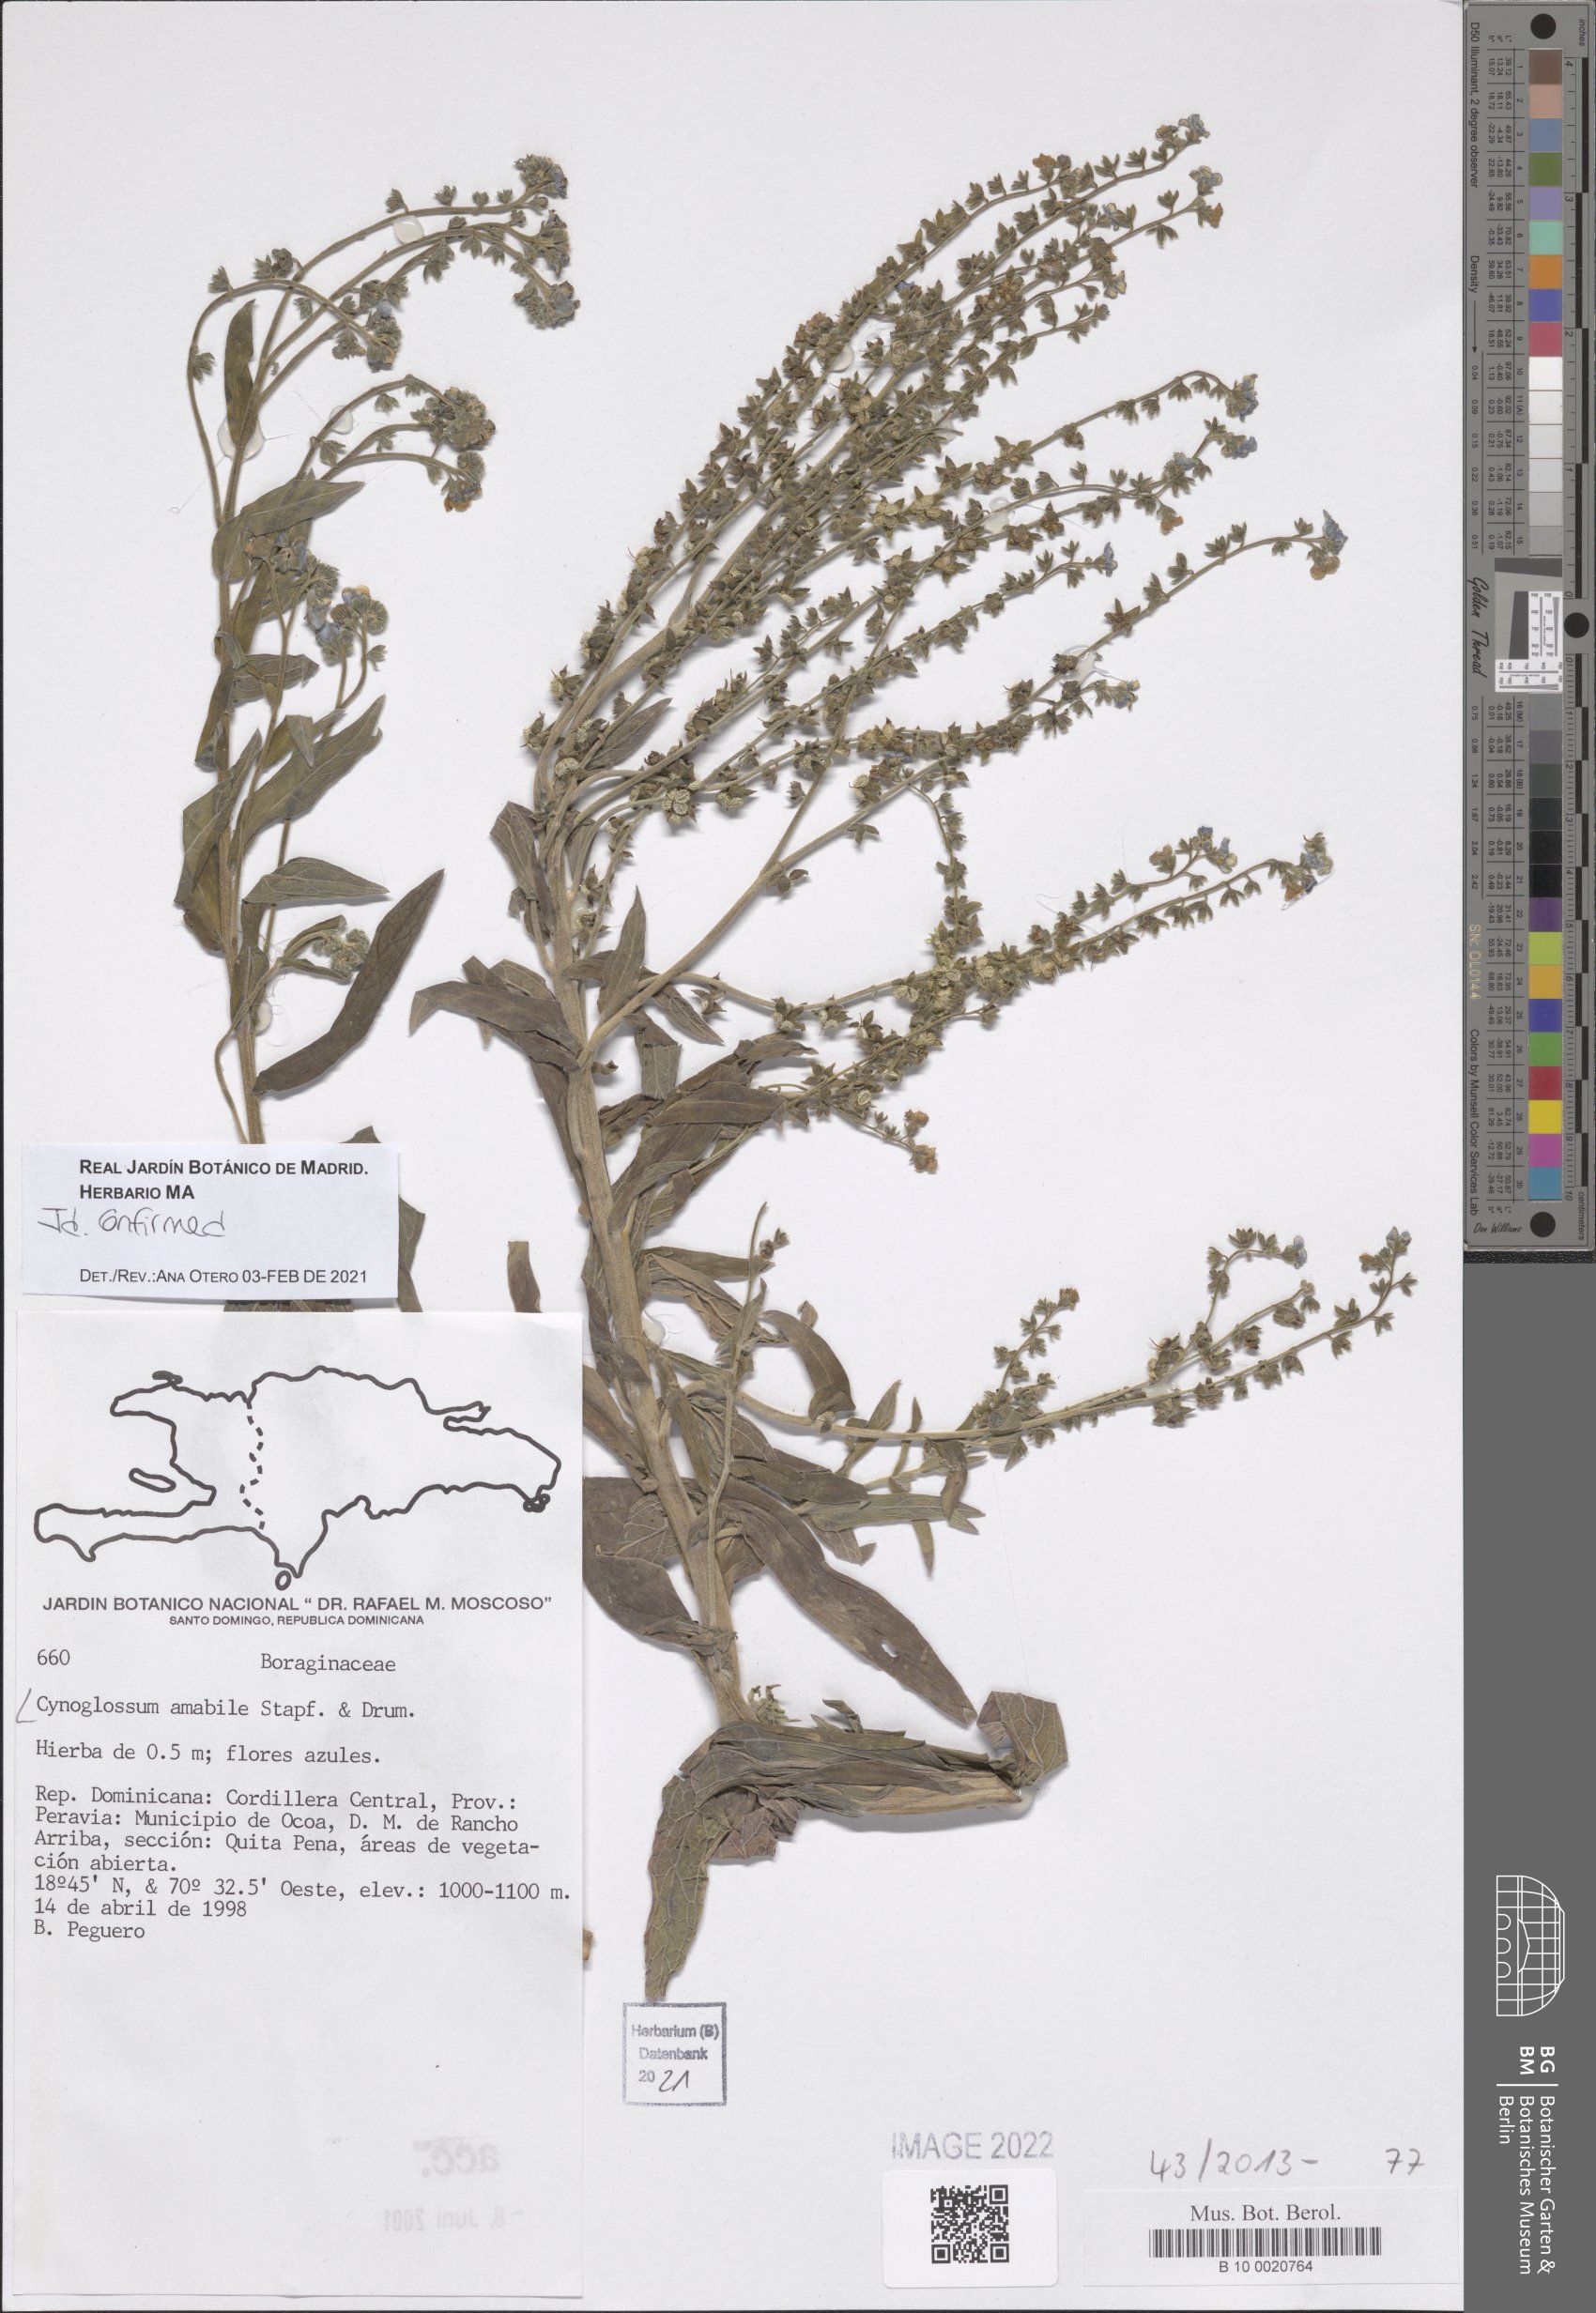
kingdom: Plantae
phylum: Tracheophyta
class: Magnoliopsida
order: Boraginales
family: Boraginaceae
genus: Cynoglossum
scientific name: Cynoglossum amabile
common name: Chinese hound's tongue
